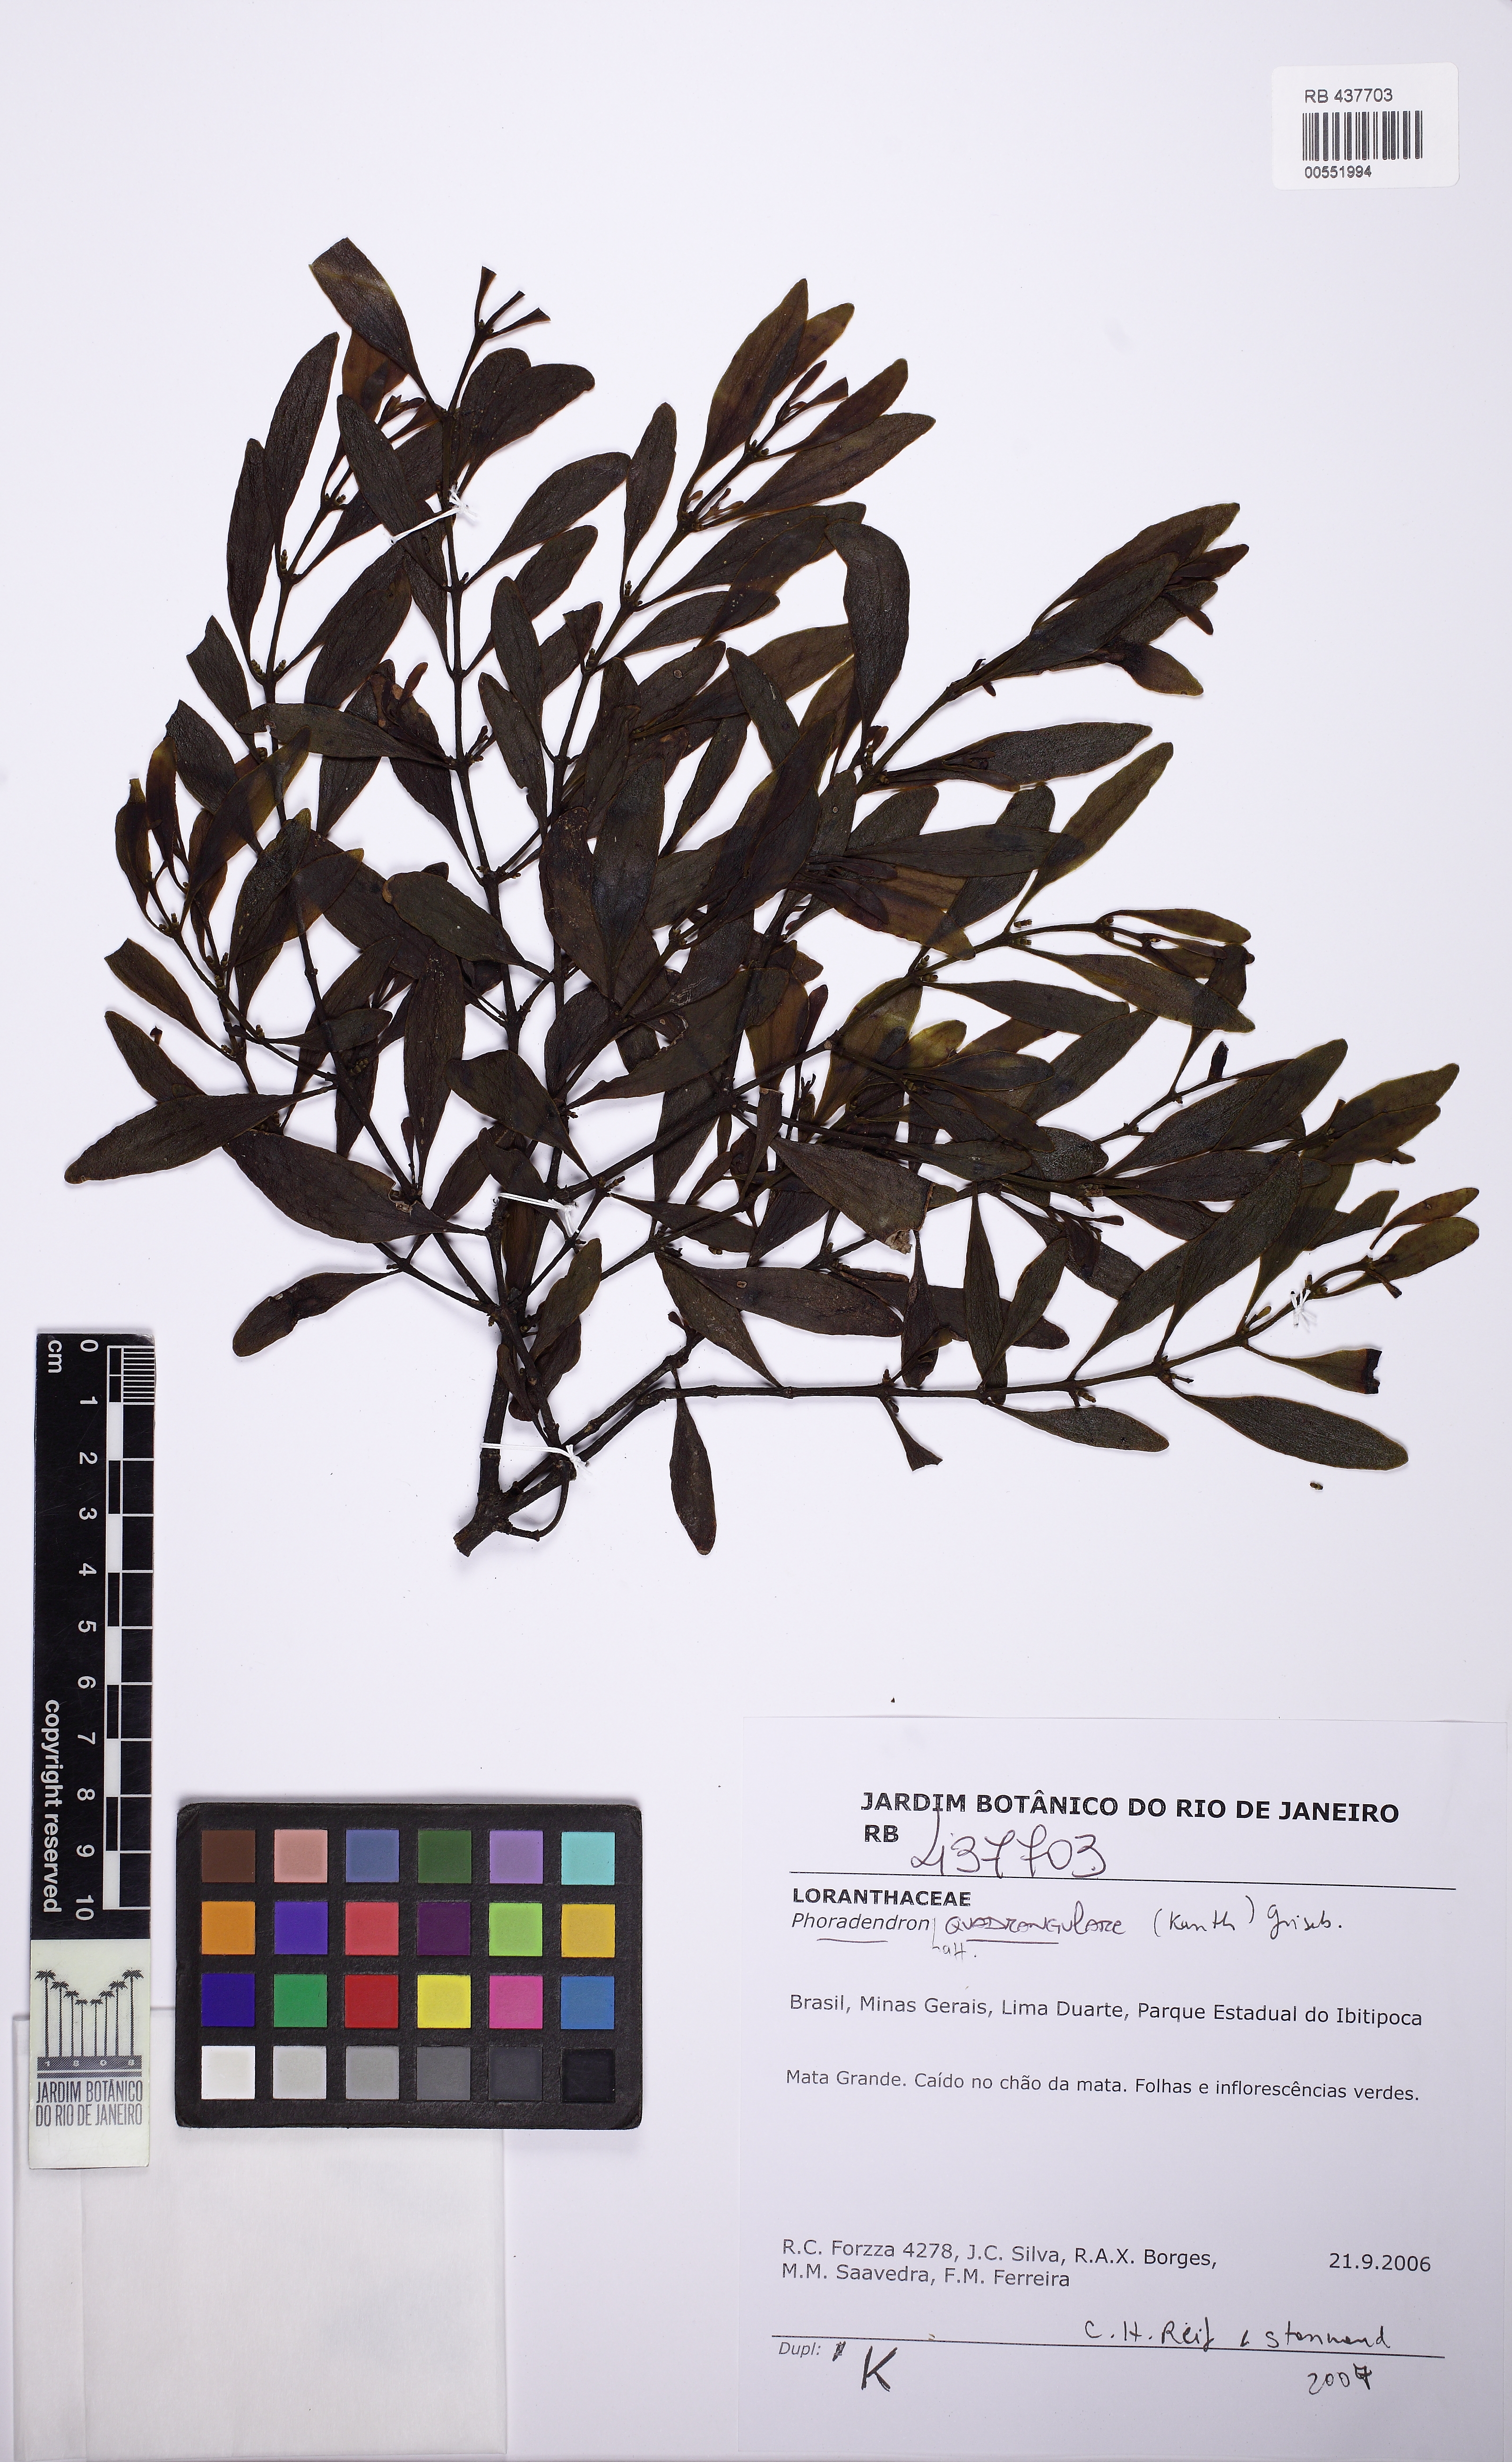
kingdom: Plantae
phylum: Tracheophyta
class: Magnoliopsida
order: Santalales
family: Viscaceae
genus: Phoradendron
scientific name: Phoradendron quadrangulare
